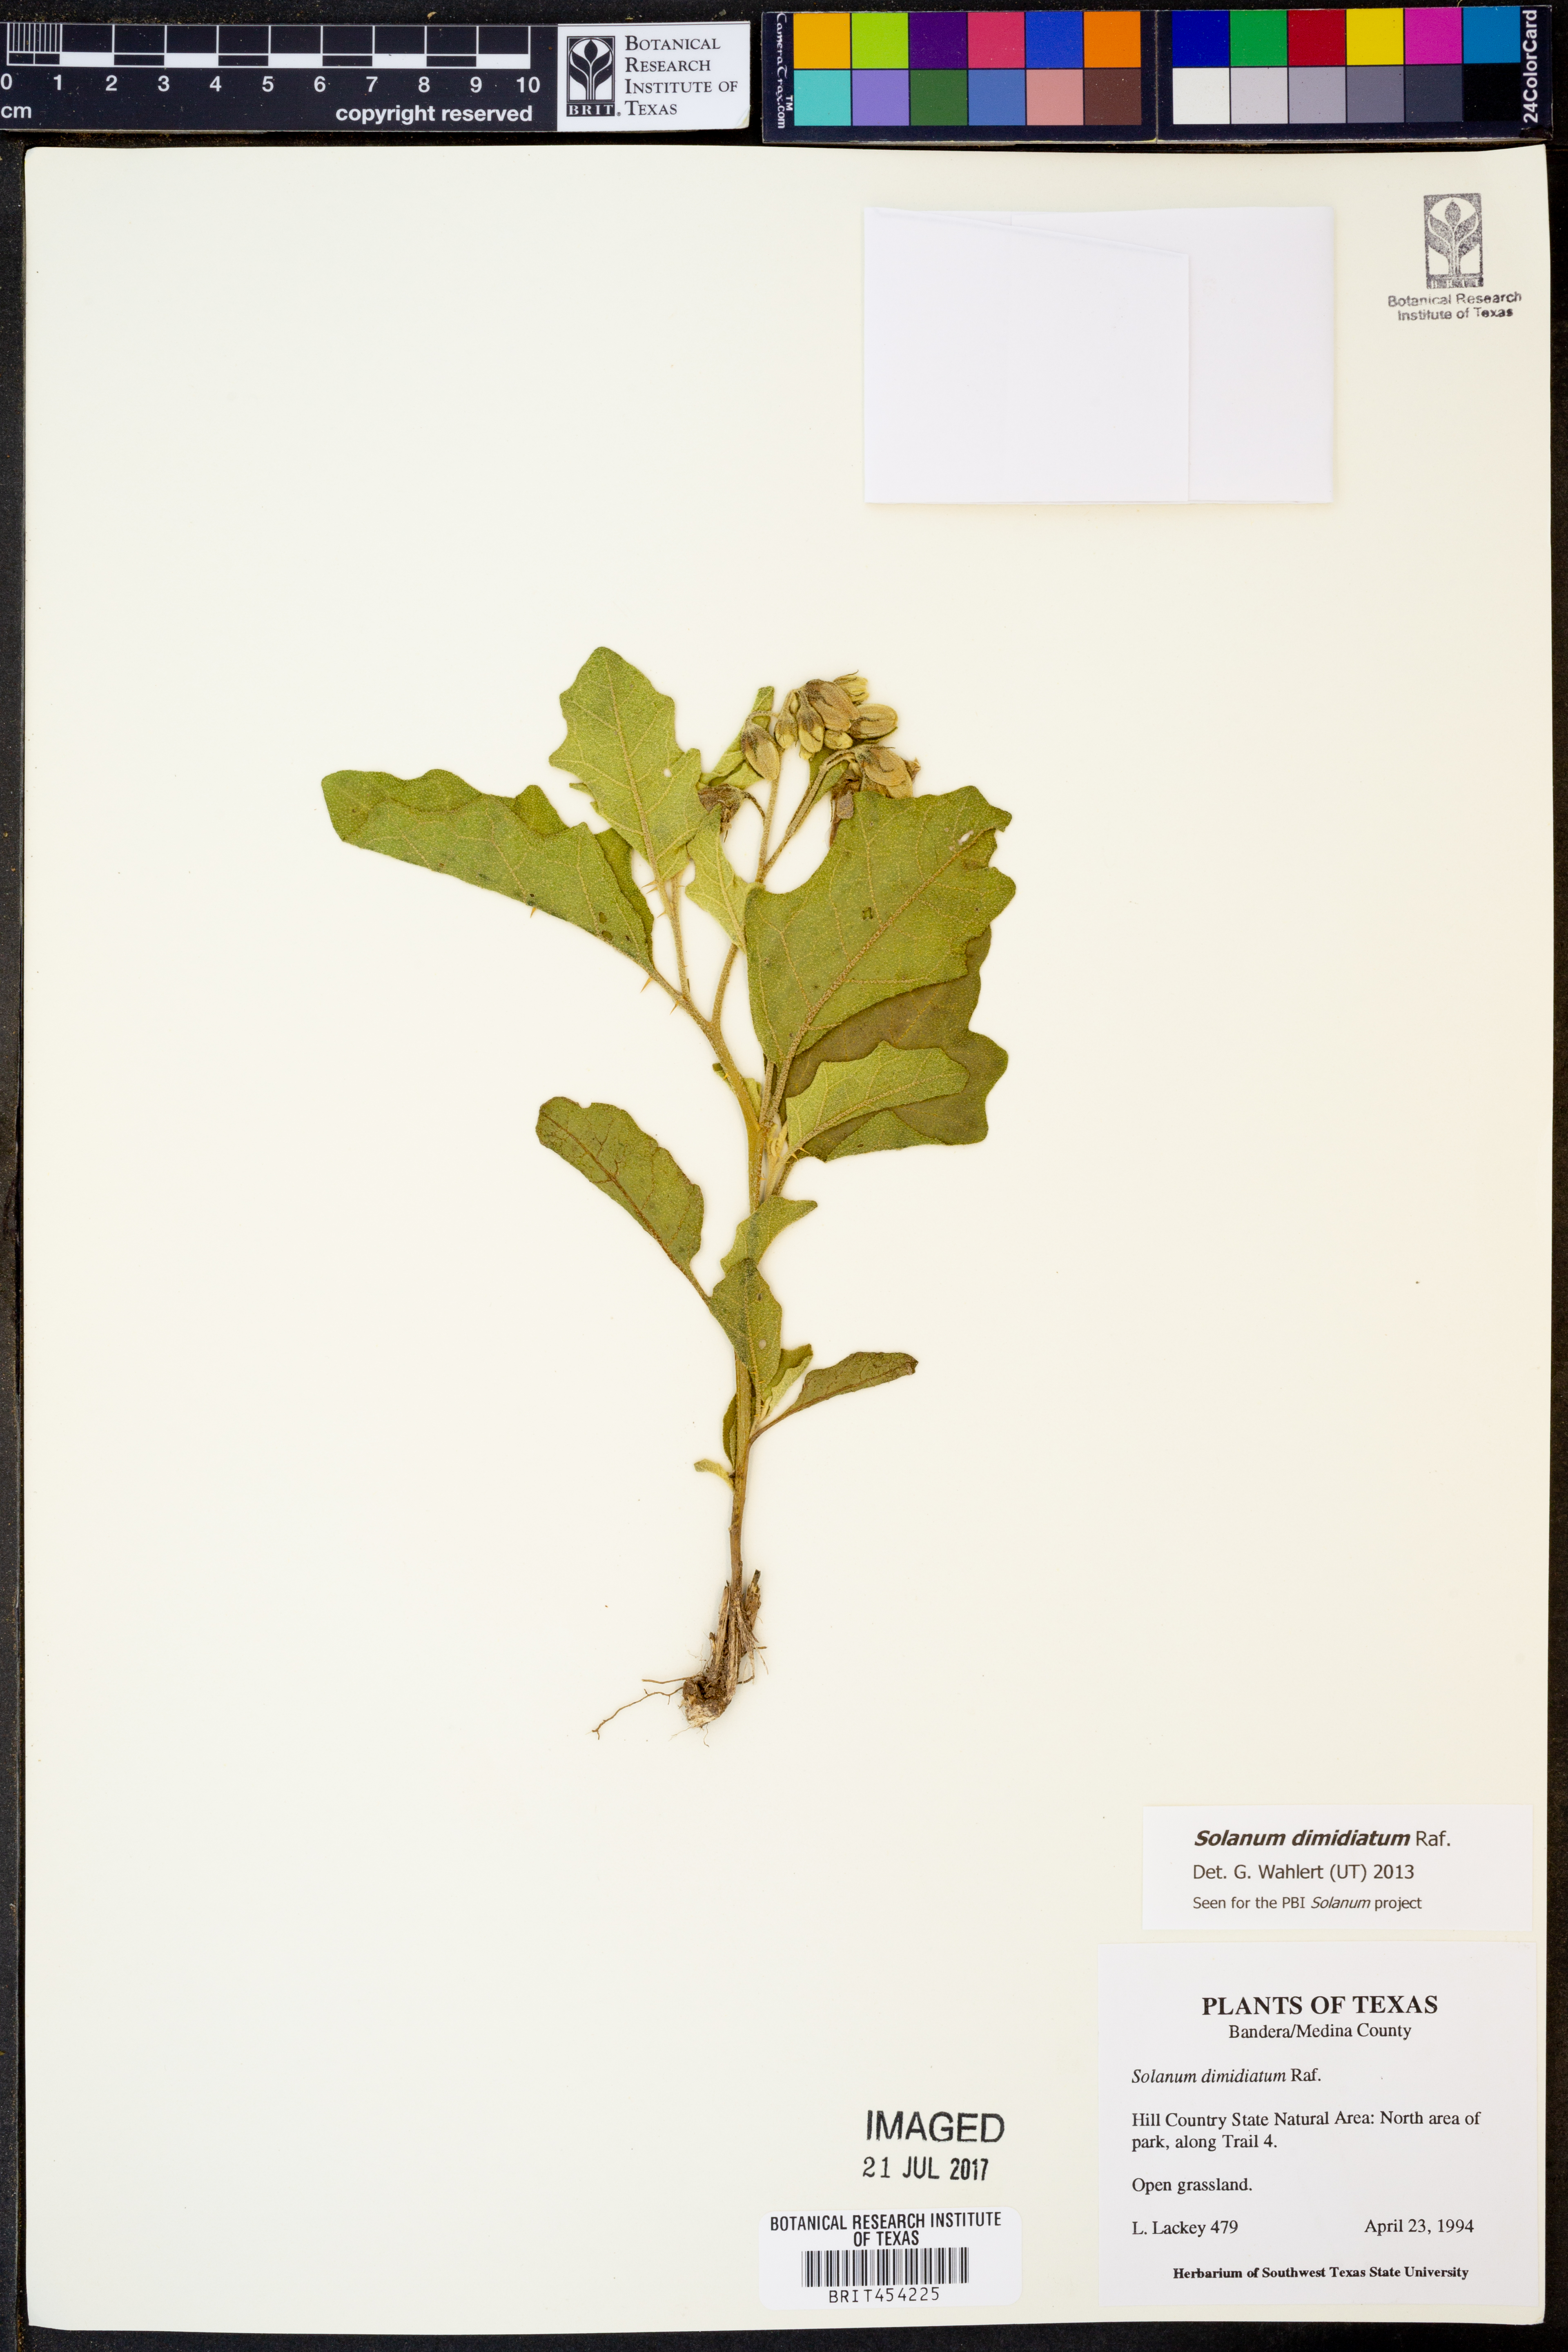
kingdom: Plantae
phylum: Tracheophyta
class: Magnoliopsida
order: Solanales
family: Solanaceae
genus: Solanum
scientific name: Solanum dimidiatum
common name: Carolina horse-nettle
